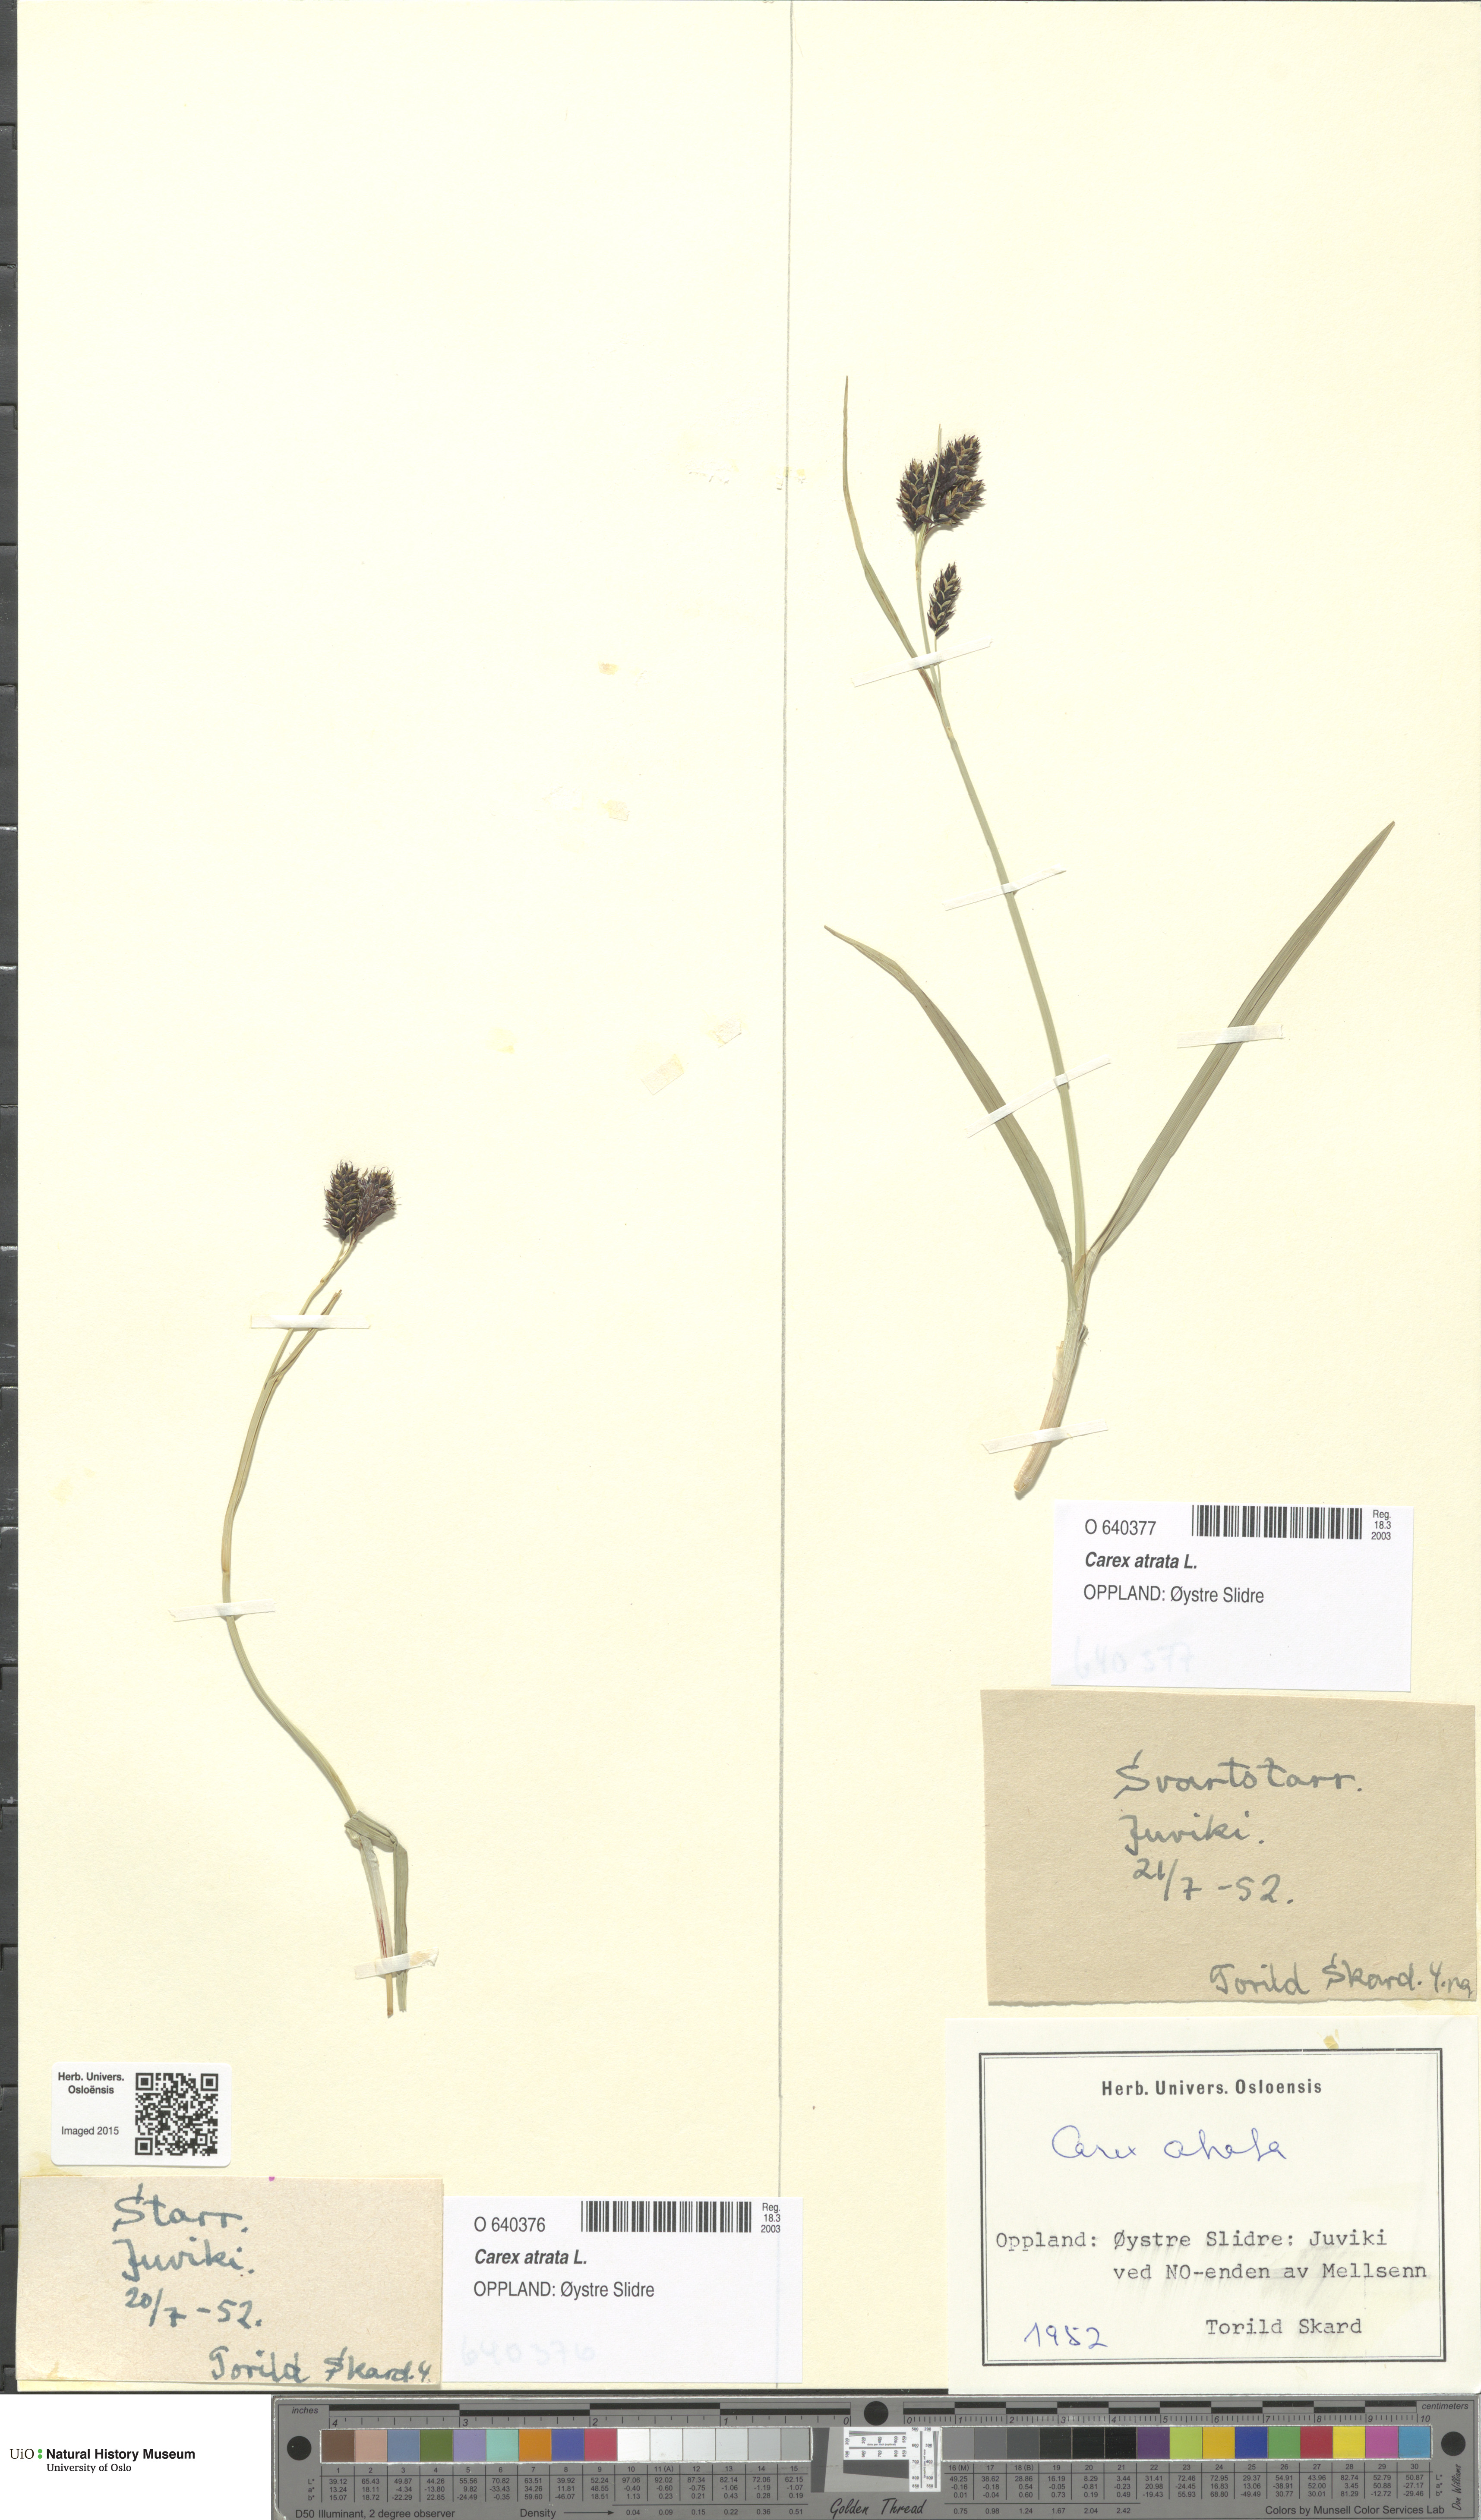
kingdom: Plantae
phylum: Tracheophyta
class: Liliopsida
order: Poales
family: Cyperaceae
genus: Carex
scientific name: Carex atrata
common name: Black alpine sedge
